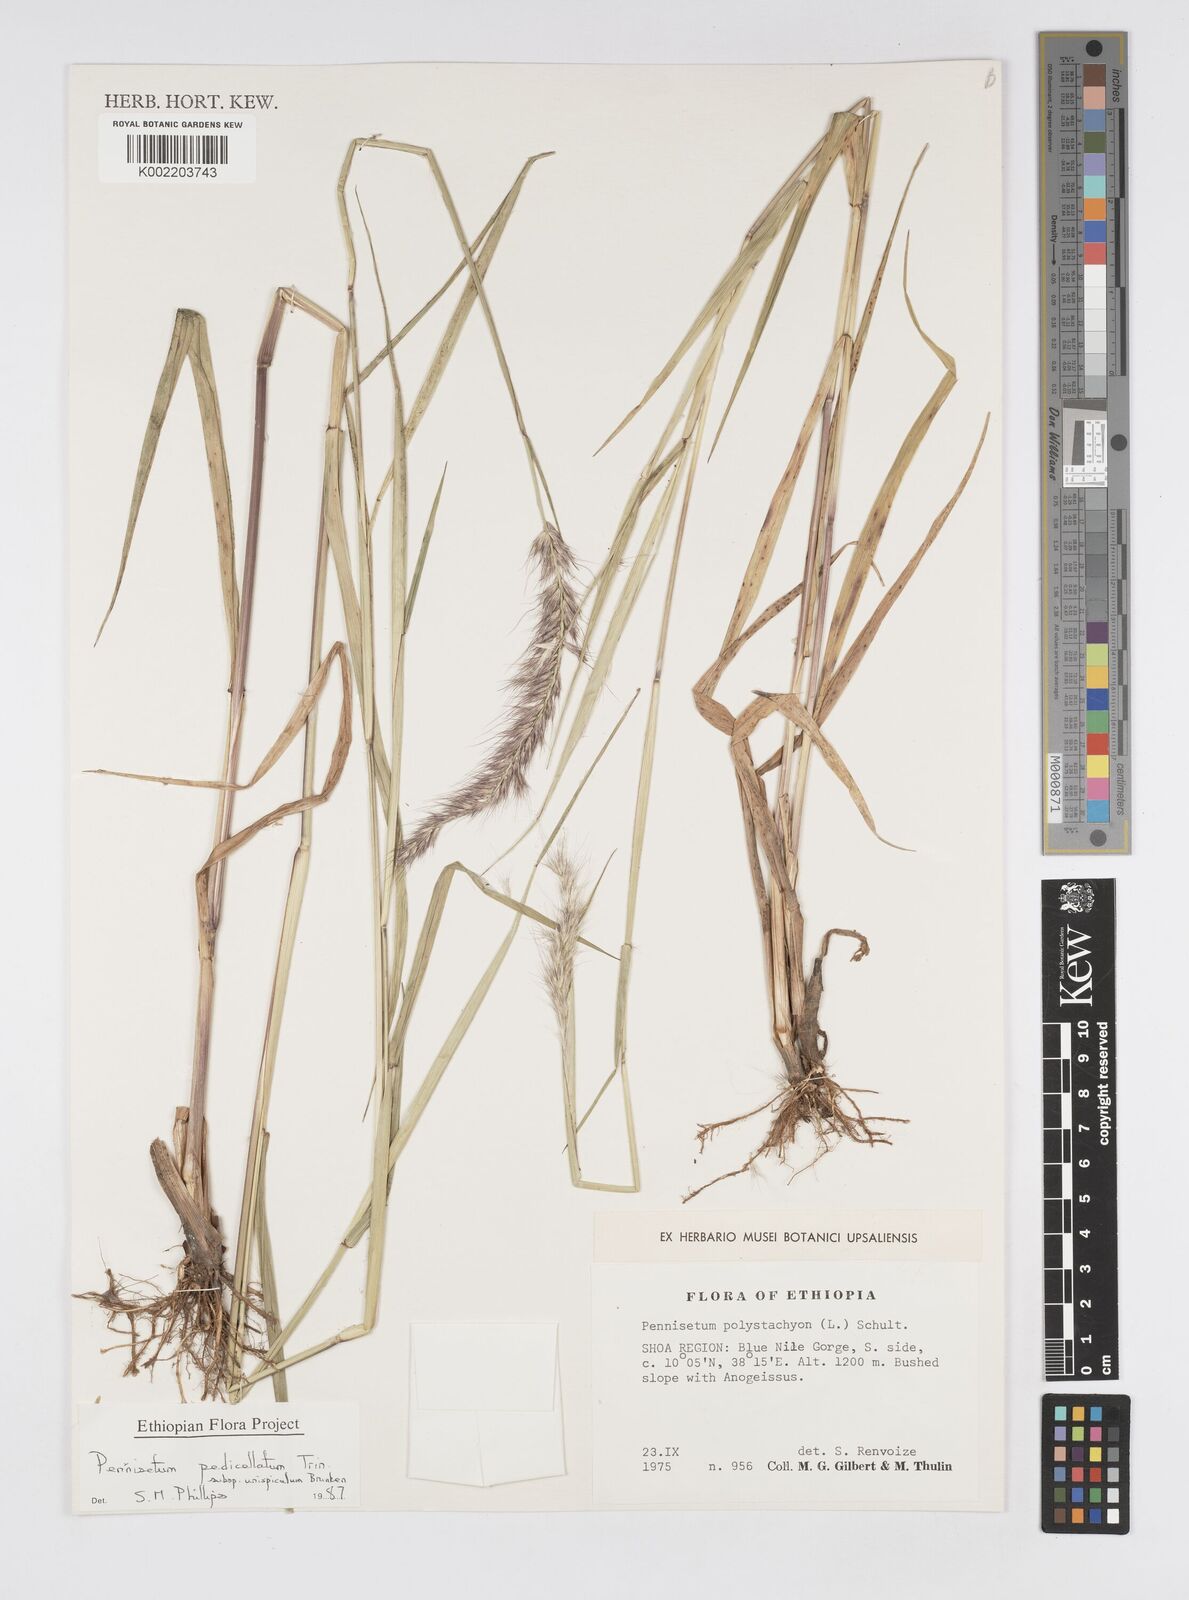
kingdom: Plantae
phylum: Tracheophyta
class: Liliopsida
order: Poales
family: Poaceae
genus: Cenchrus
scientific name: Cenchrus pedicellatus
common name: Hairy fountain grass
